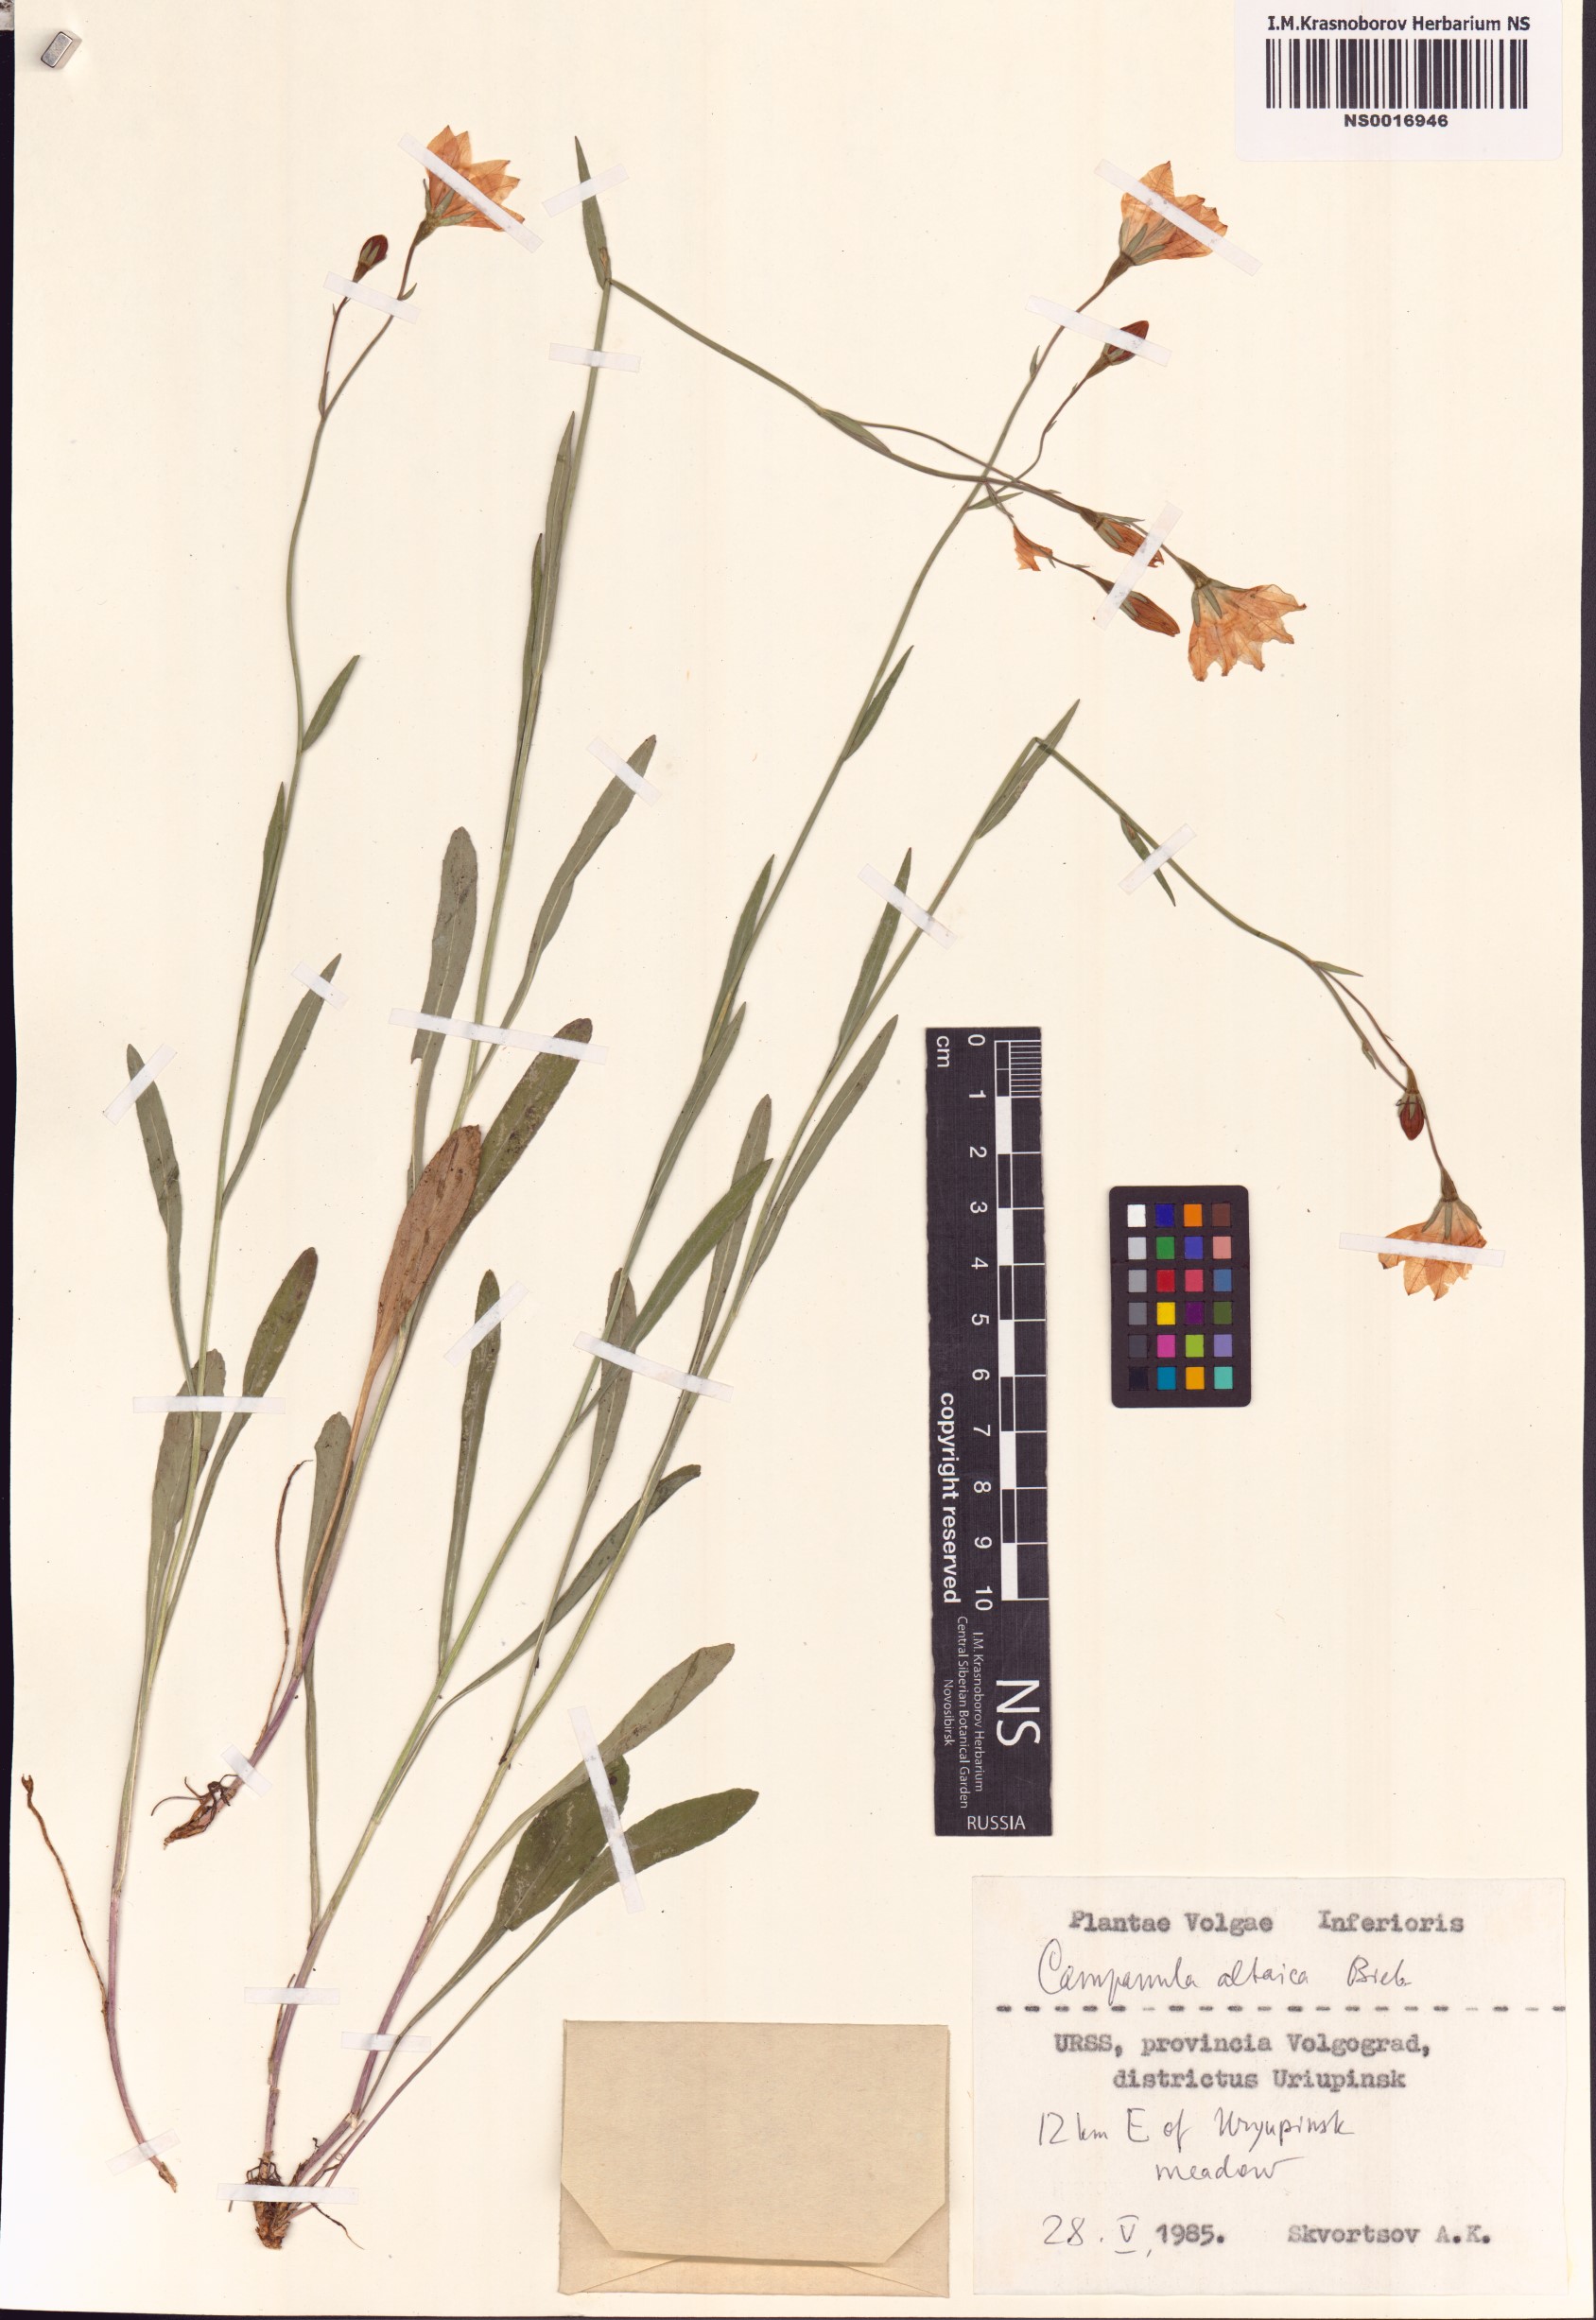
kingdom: Plantae
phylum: Tracheophyta
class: Magnoliopsida
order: Asterales
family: Campanulaceae
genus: Campanula
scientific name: Campanula stevenii
